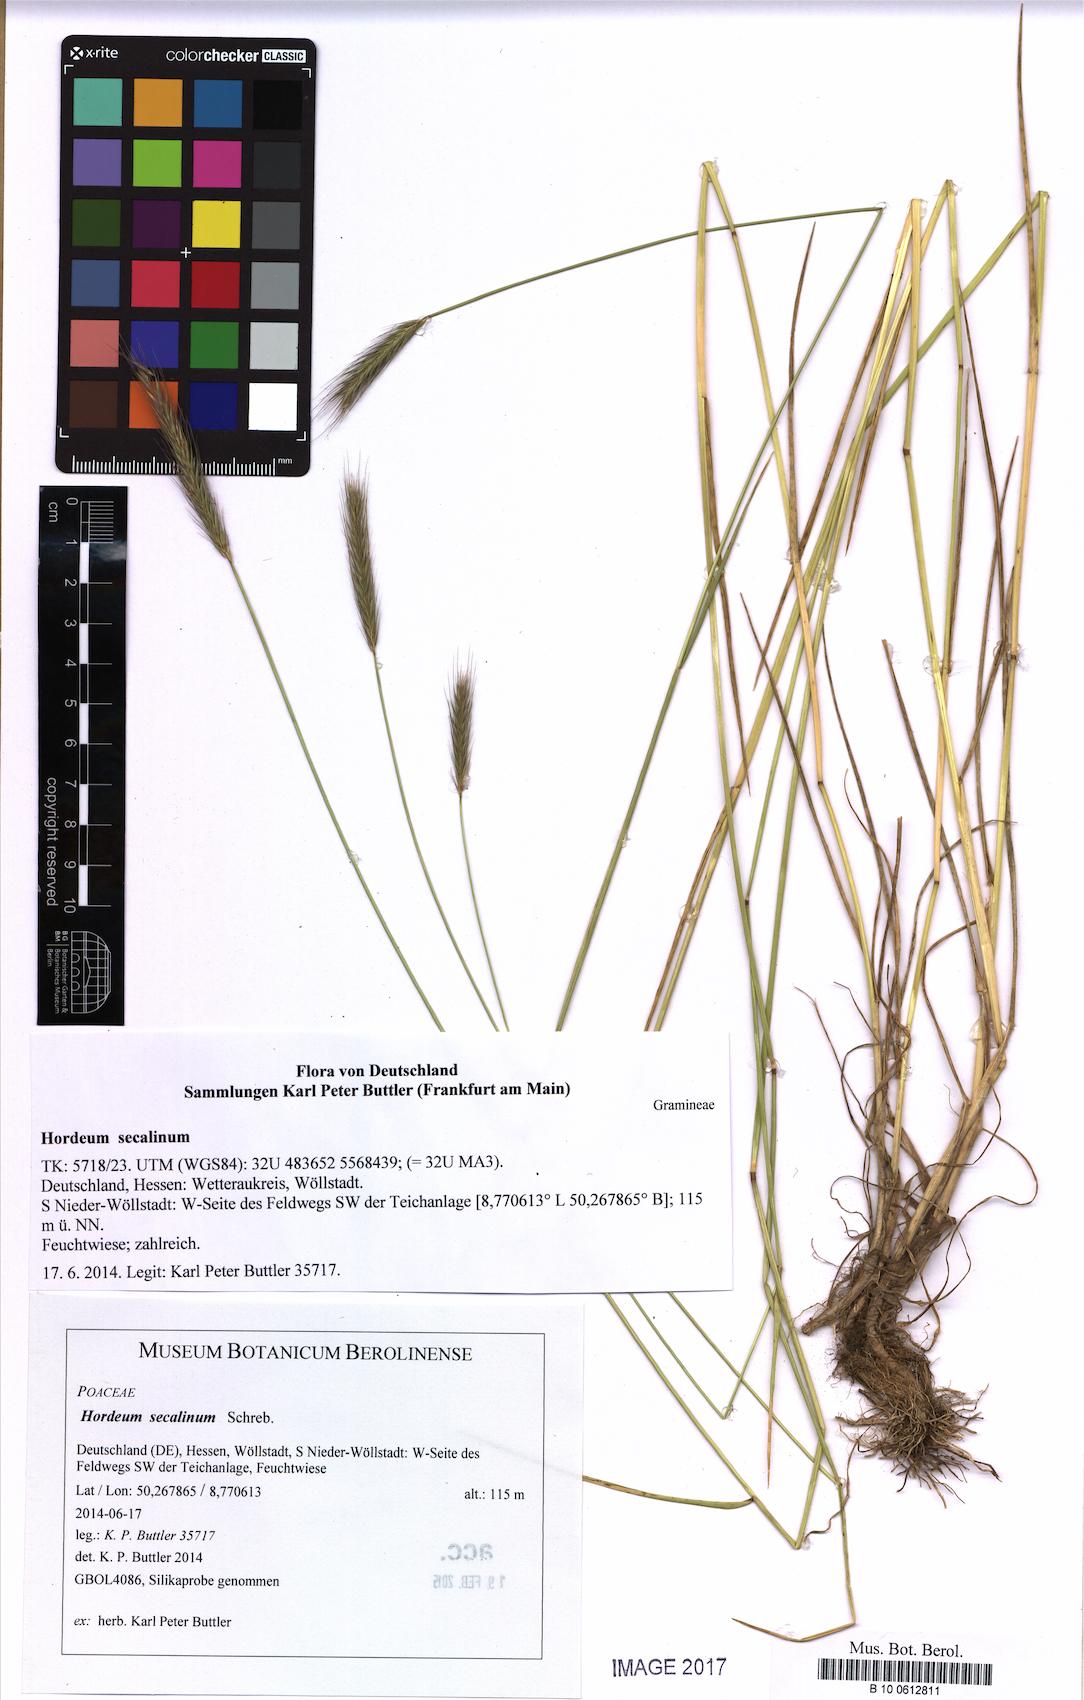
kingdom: Plantae
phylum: Tracheophyta
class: Liliopsida
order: Poales
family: Poaceae
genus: Hordeum
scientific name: Hordeum secalinum
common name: Meadow barley
